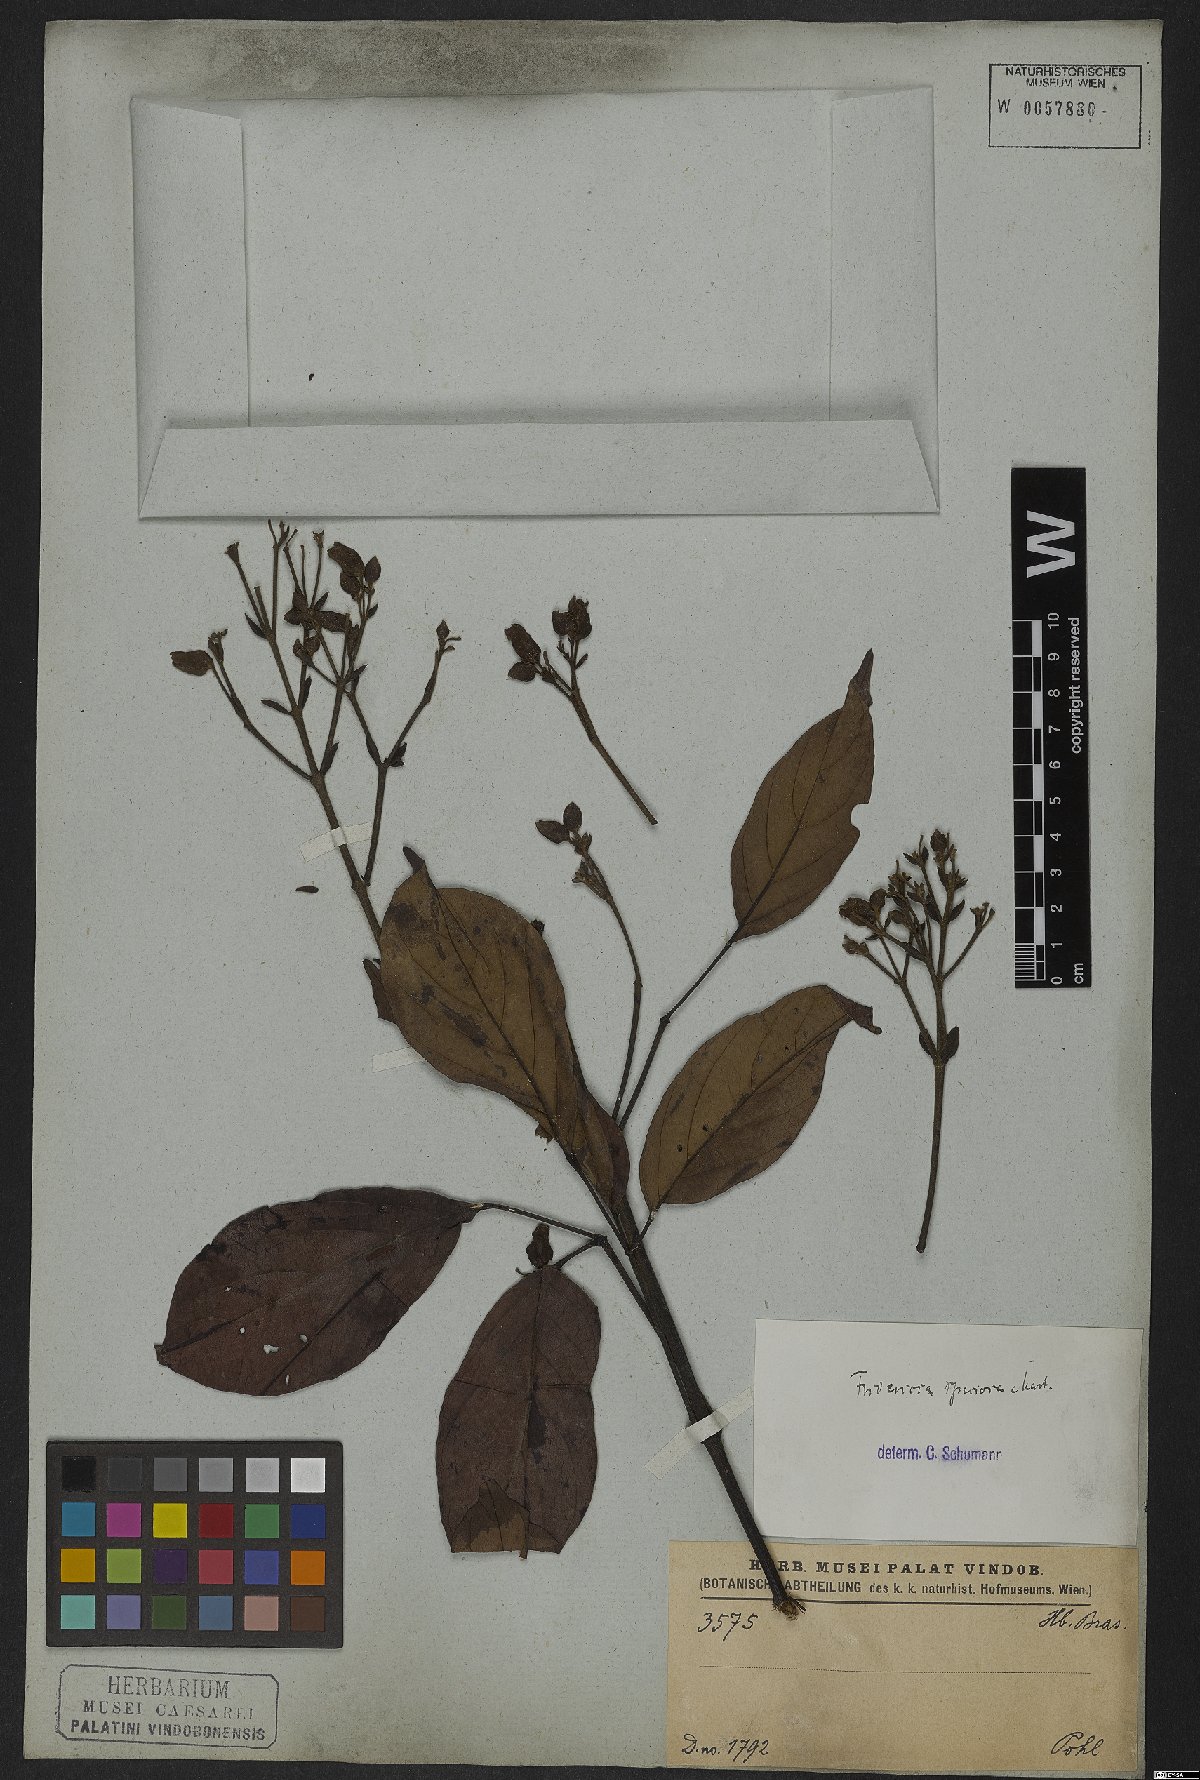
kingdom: Plantae
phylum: Tracheophyta
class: Magnoliopsida
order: Lamiales
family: Bignoniaceae
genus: Fridericia
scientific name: Fridericia speciosa
